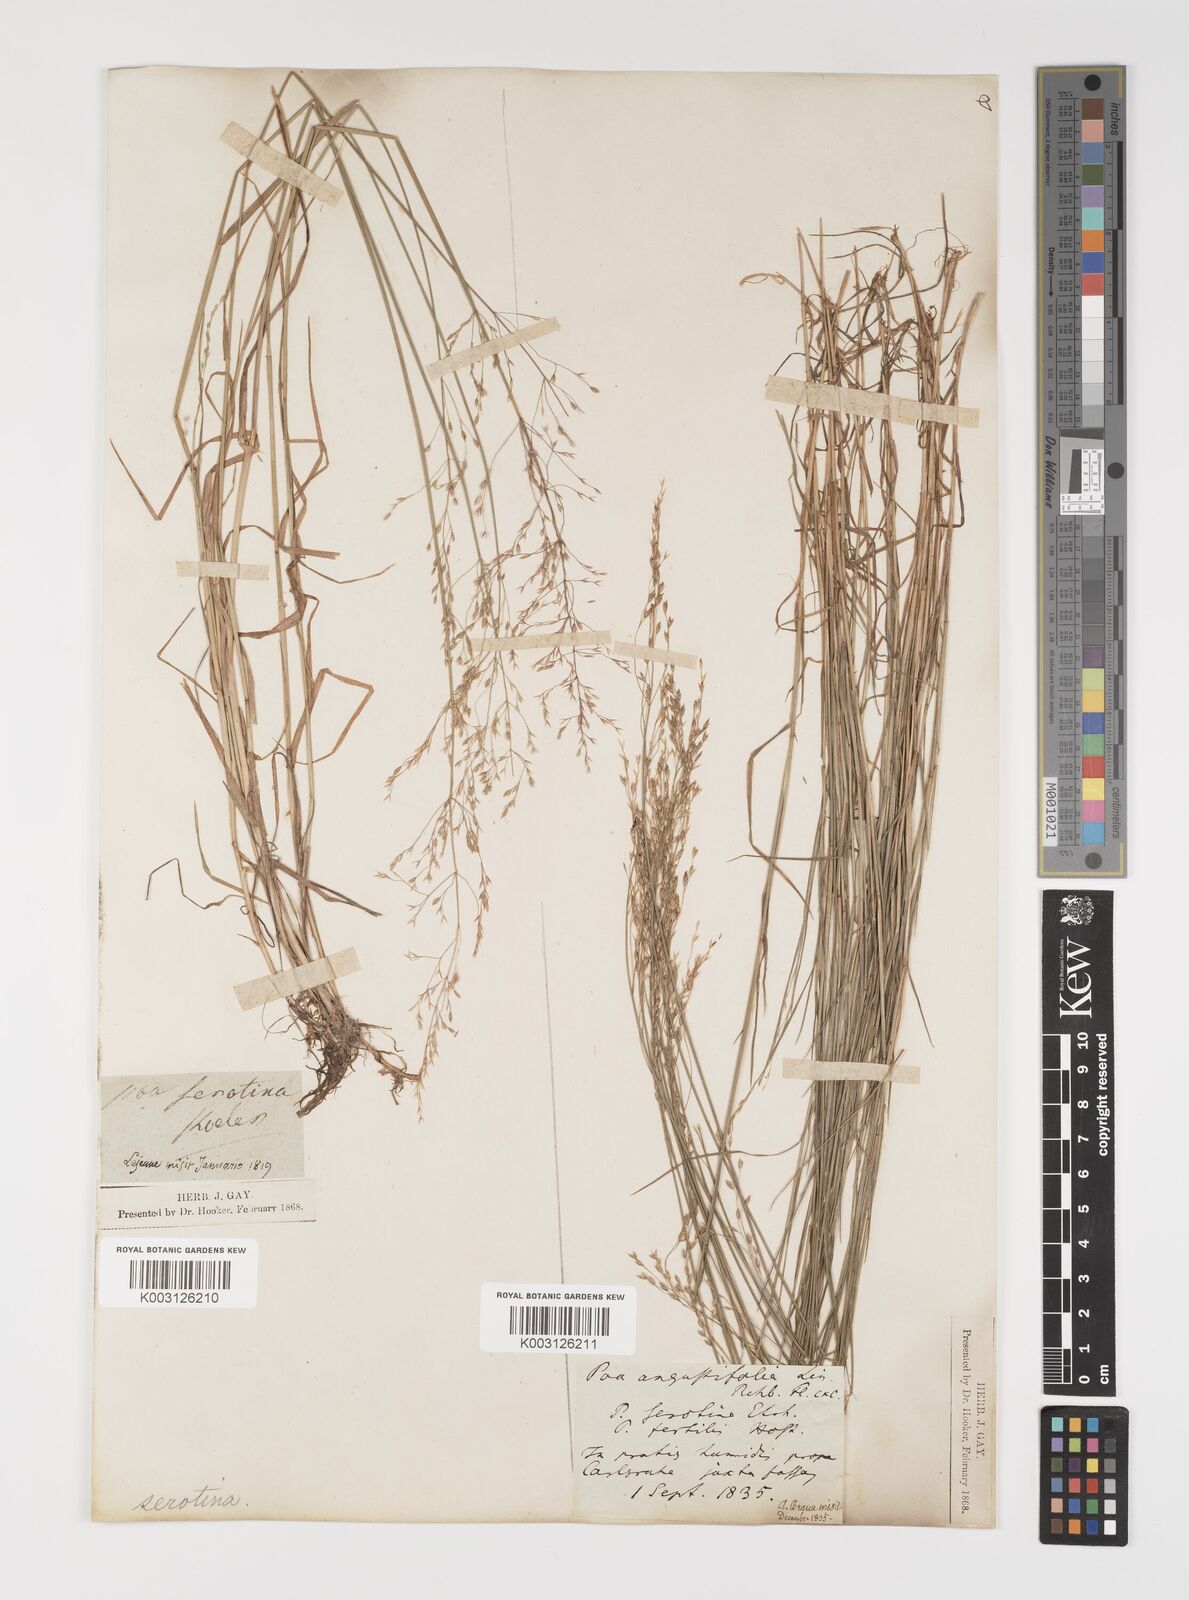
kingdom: Plantae
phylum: Tracheophyta
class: Liliopsida
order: Poales
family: Poaceae
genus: Poa
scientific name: Poa palustris
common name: Swamp meadow-grass
